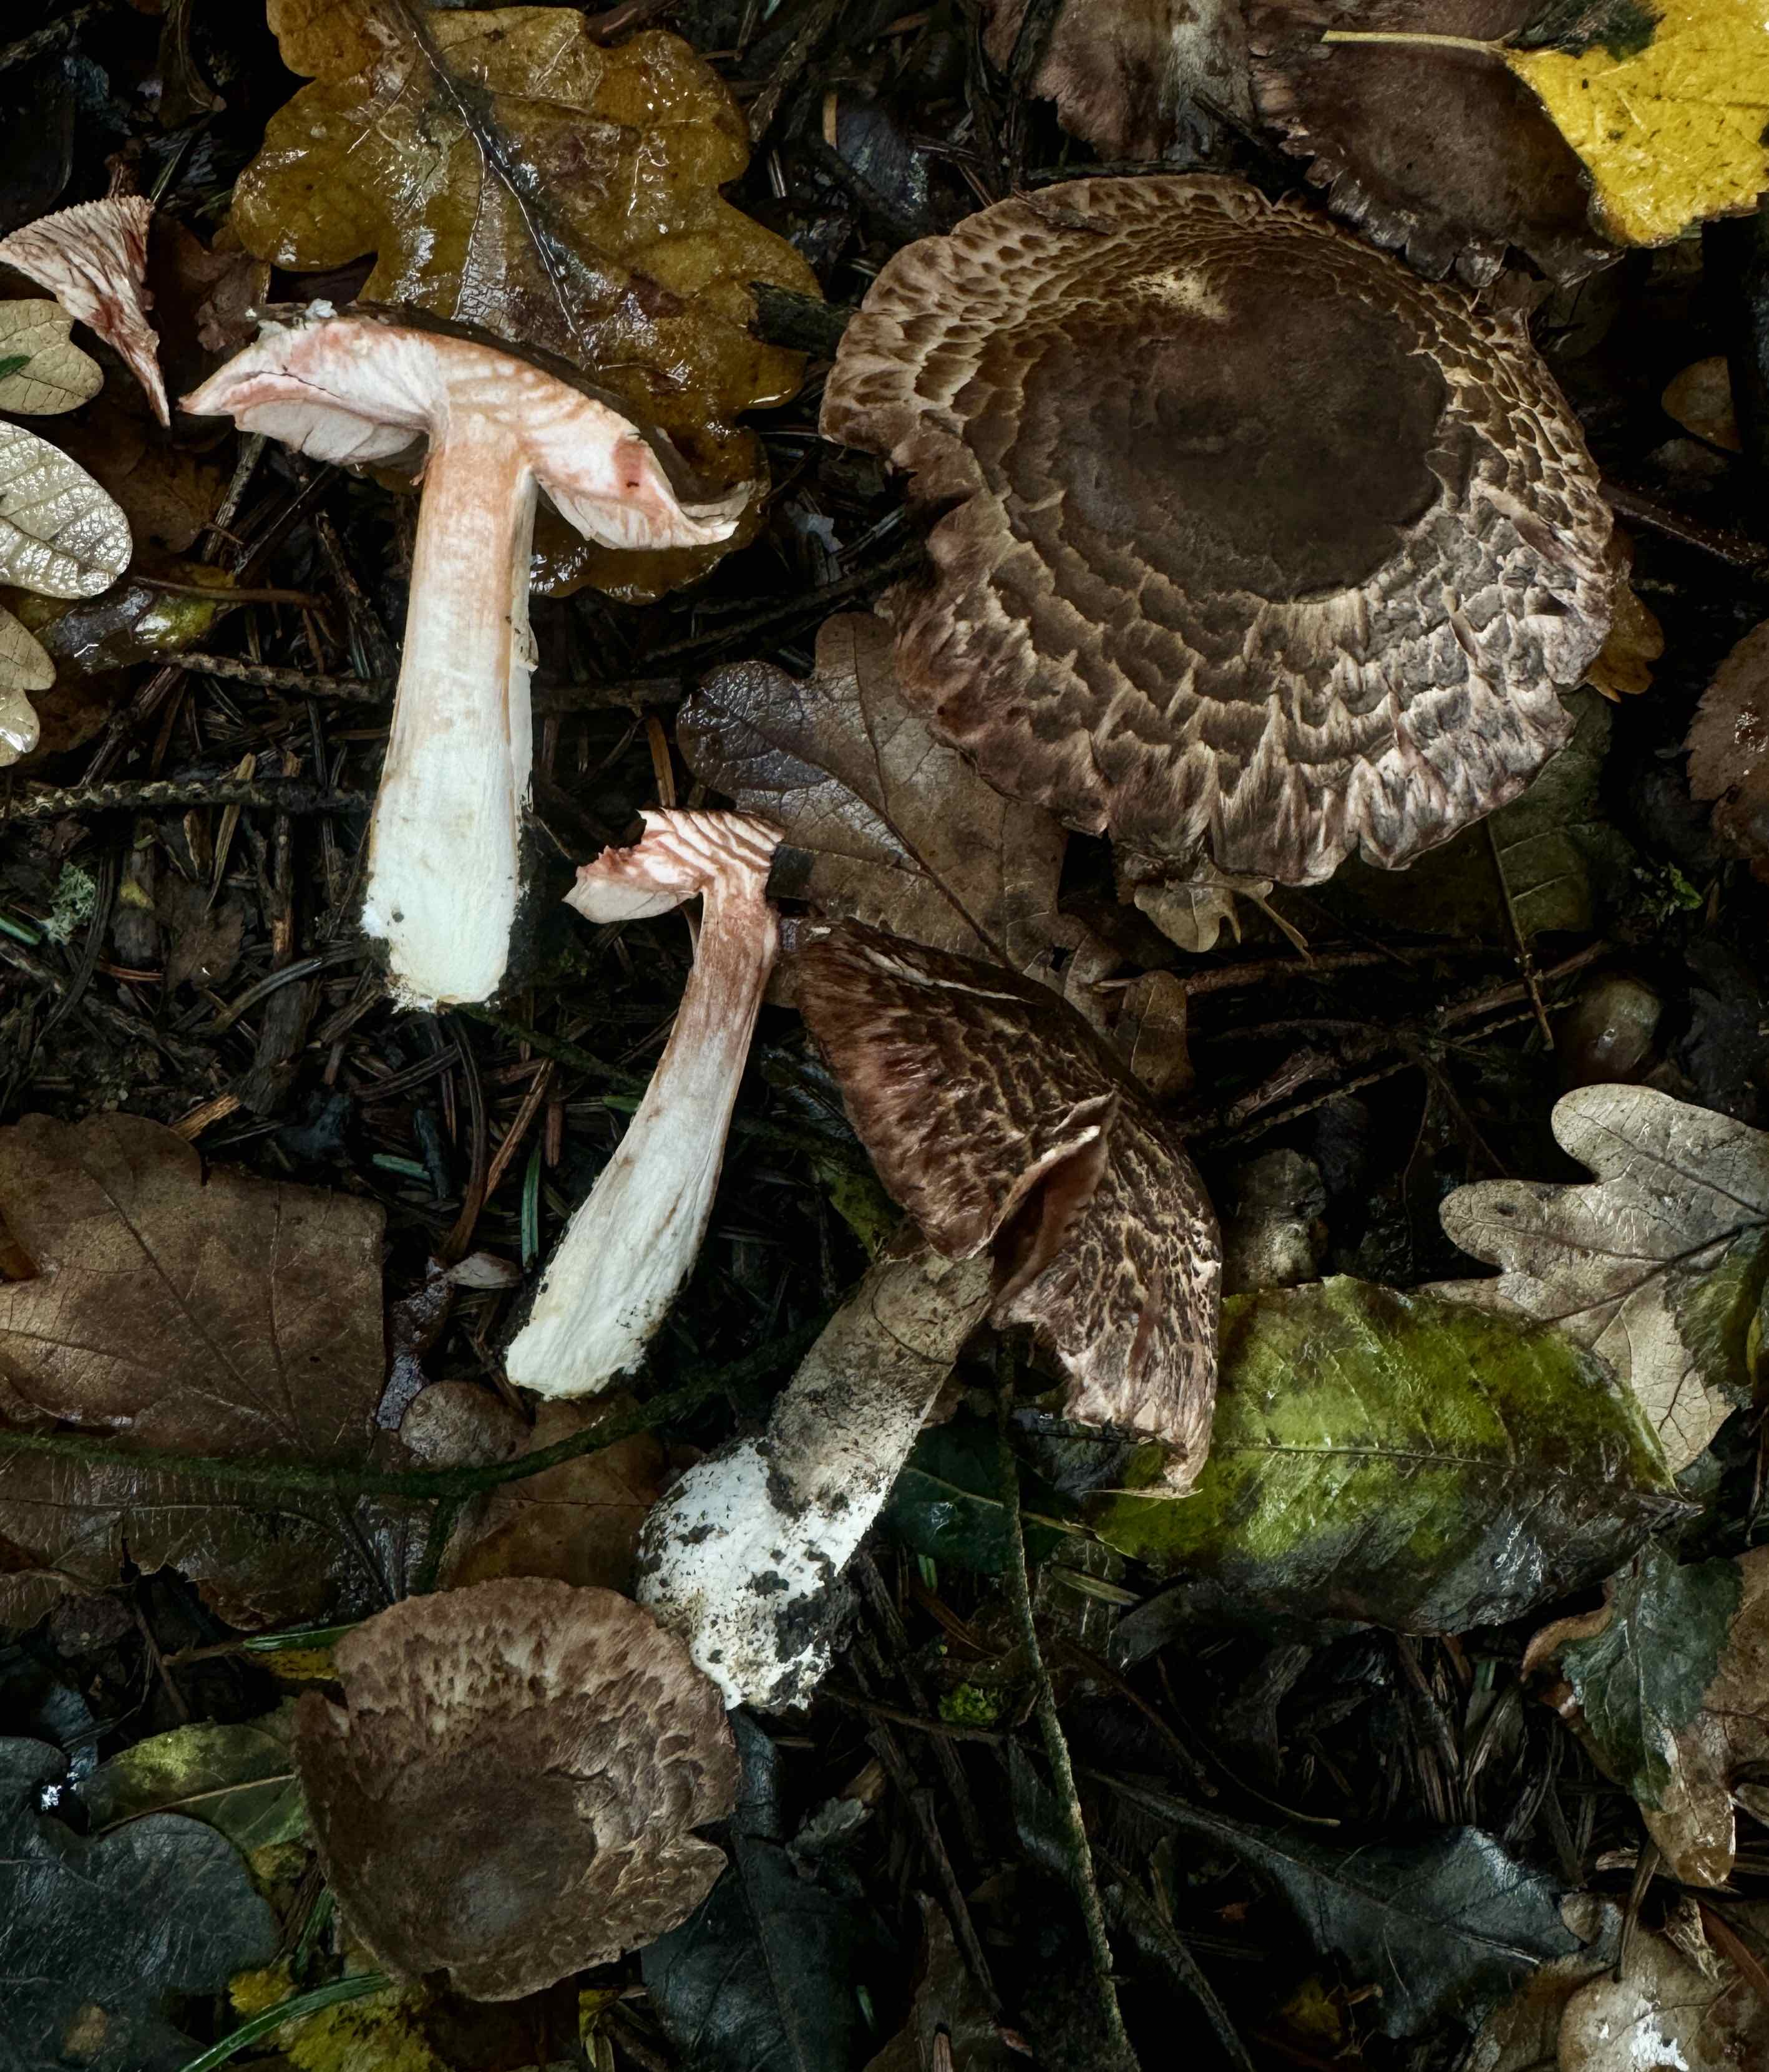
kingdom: Fungi
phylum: Basidiomycota
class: Agaricomycetes
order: Agaricales
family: Agaricaceae
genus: Agaricus
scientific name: Agaricus sylvaticus
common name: lille blod-champignon
